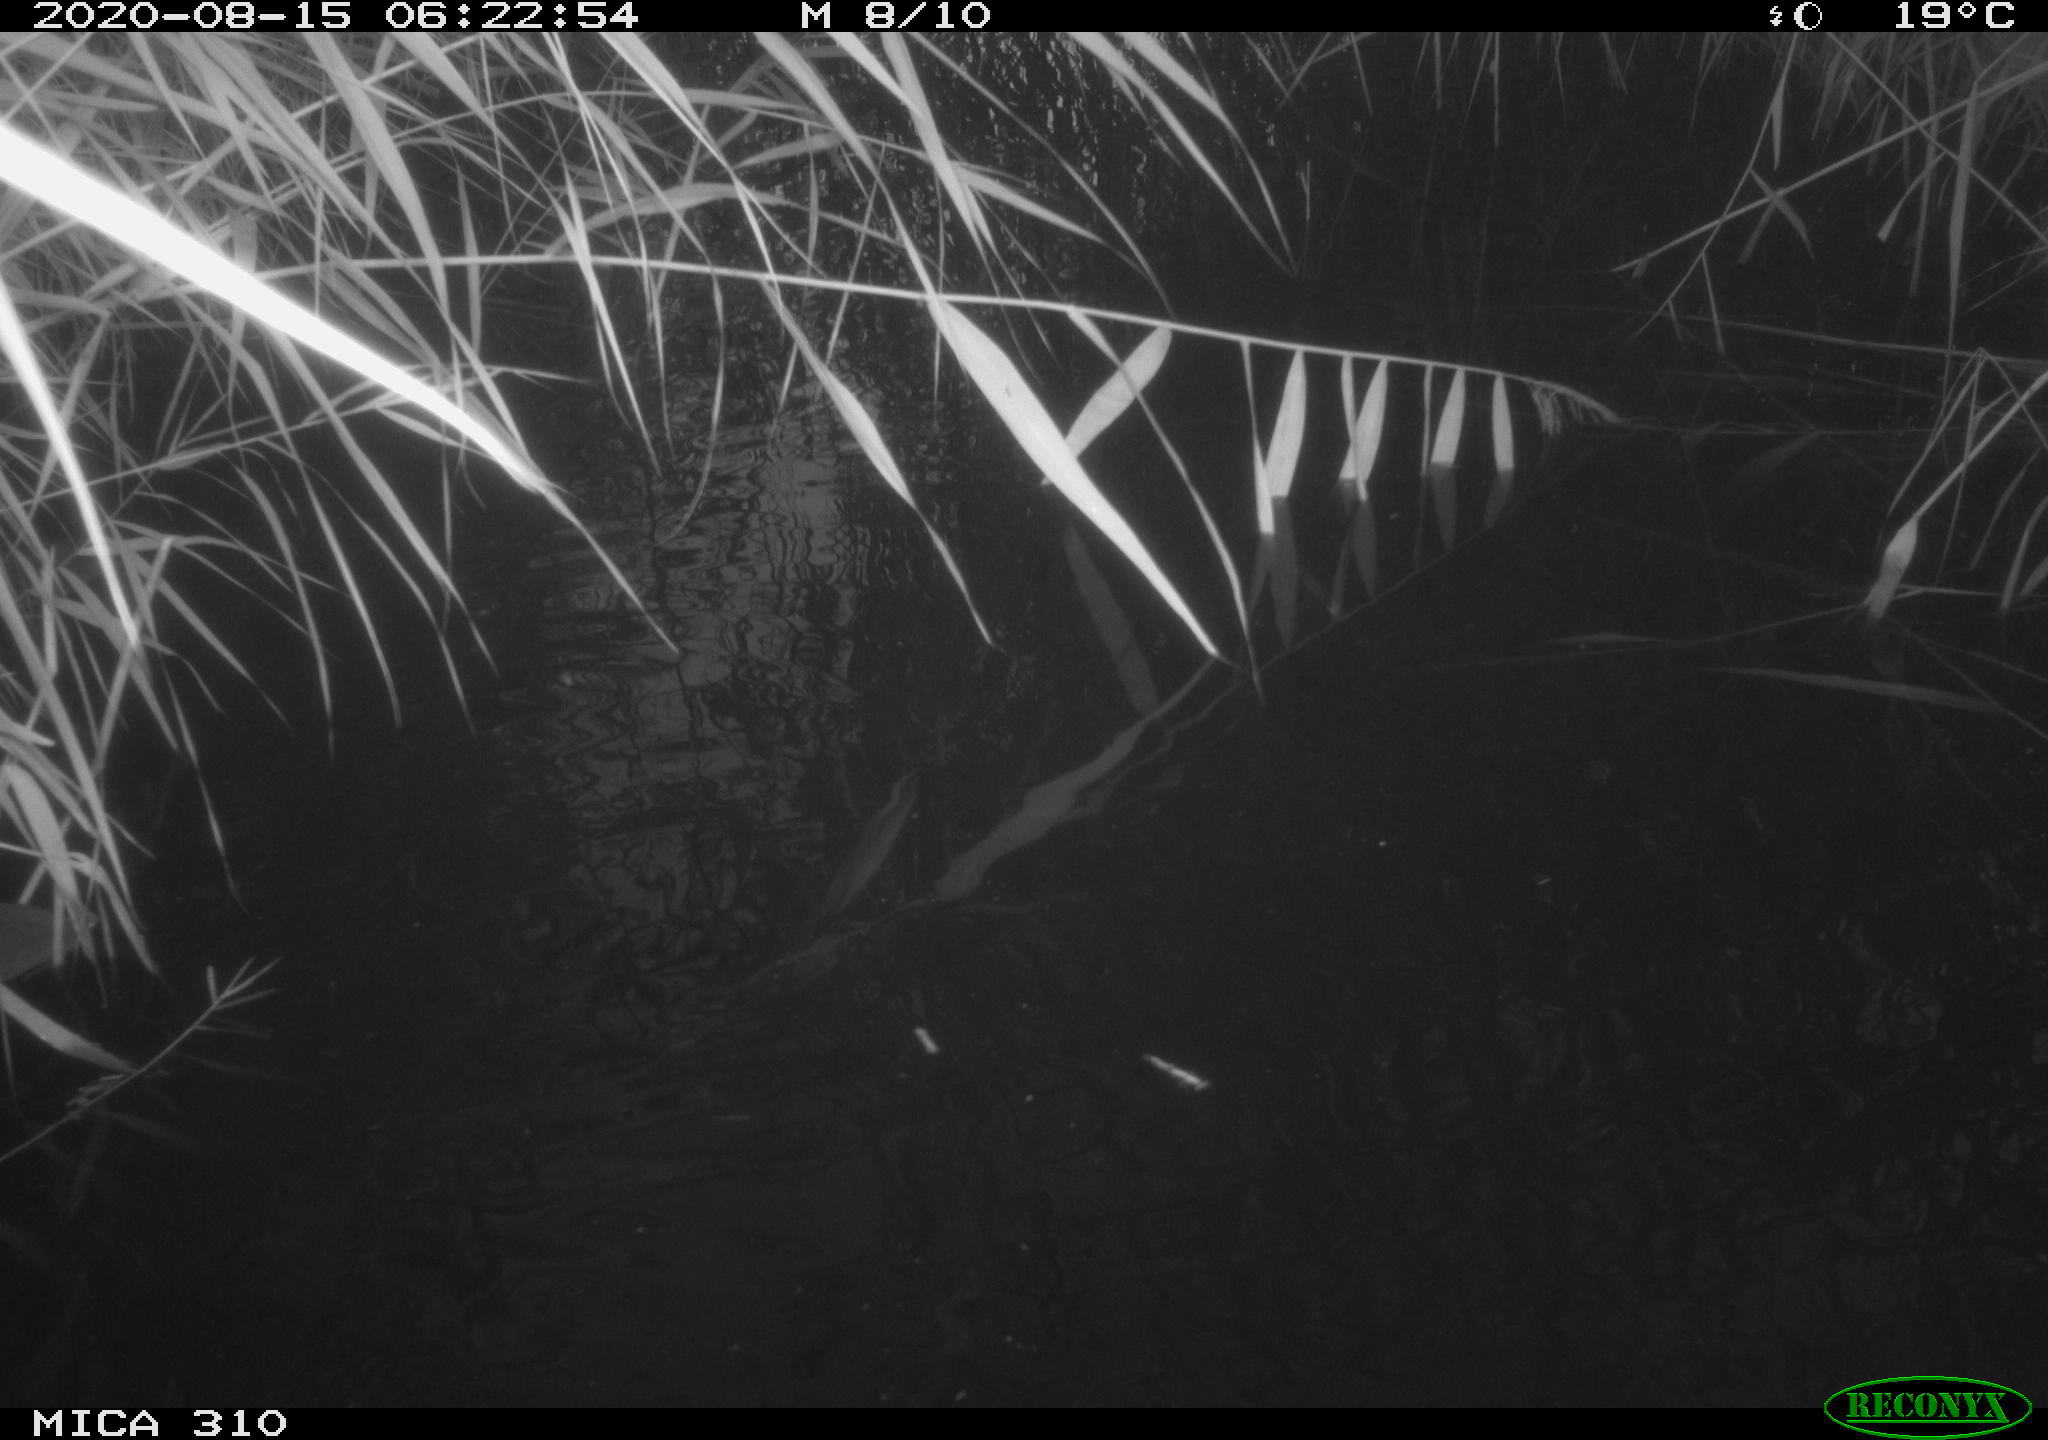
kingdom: Animalia
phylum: Chordata
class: Aves
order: Gruiformes
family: Rallidae
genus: Fulica
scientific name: Fulica atra
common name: Eurasian coot
